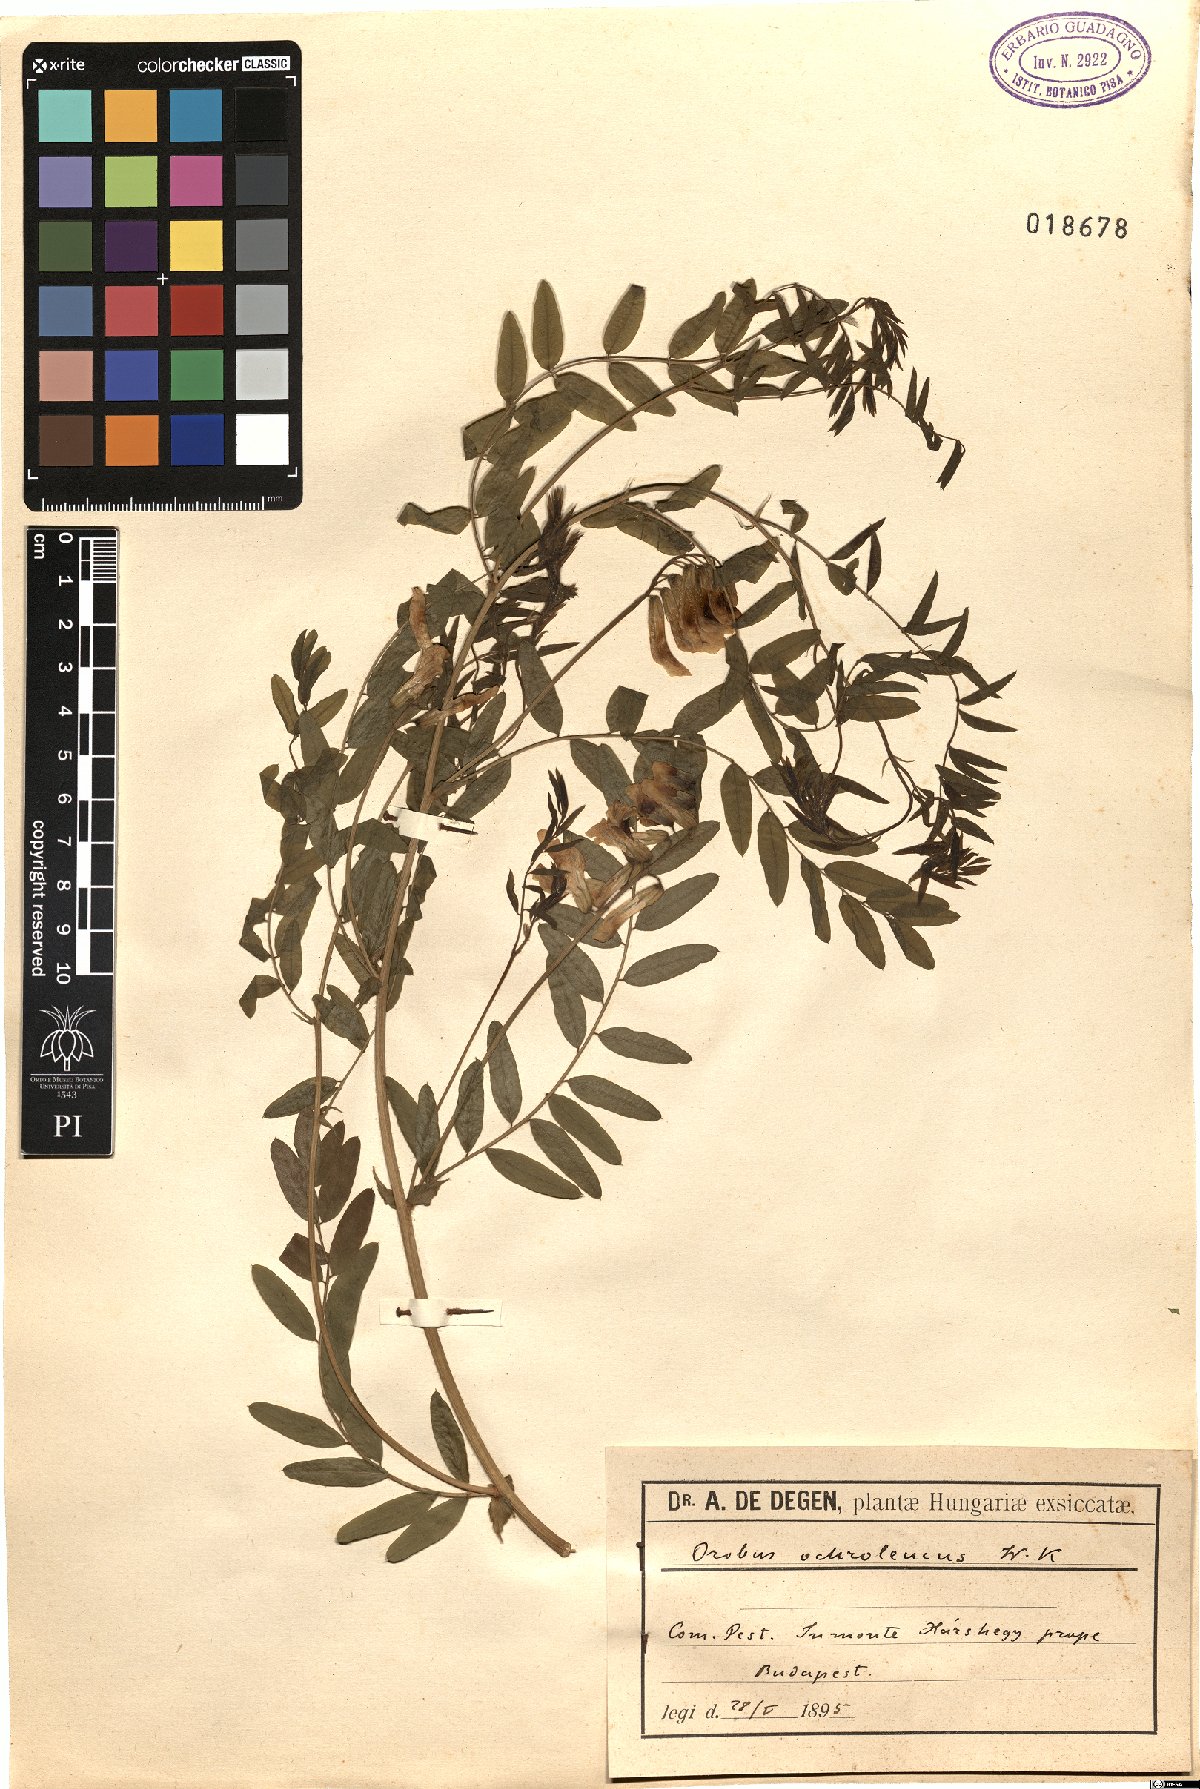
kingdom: Plantae
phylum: Tracheophyta
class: Magnoliopsida
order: Fabales
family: Fabaceae
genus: Vicia
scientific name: Vicia sparsiflora
